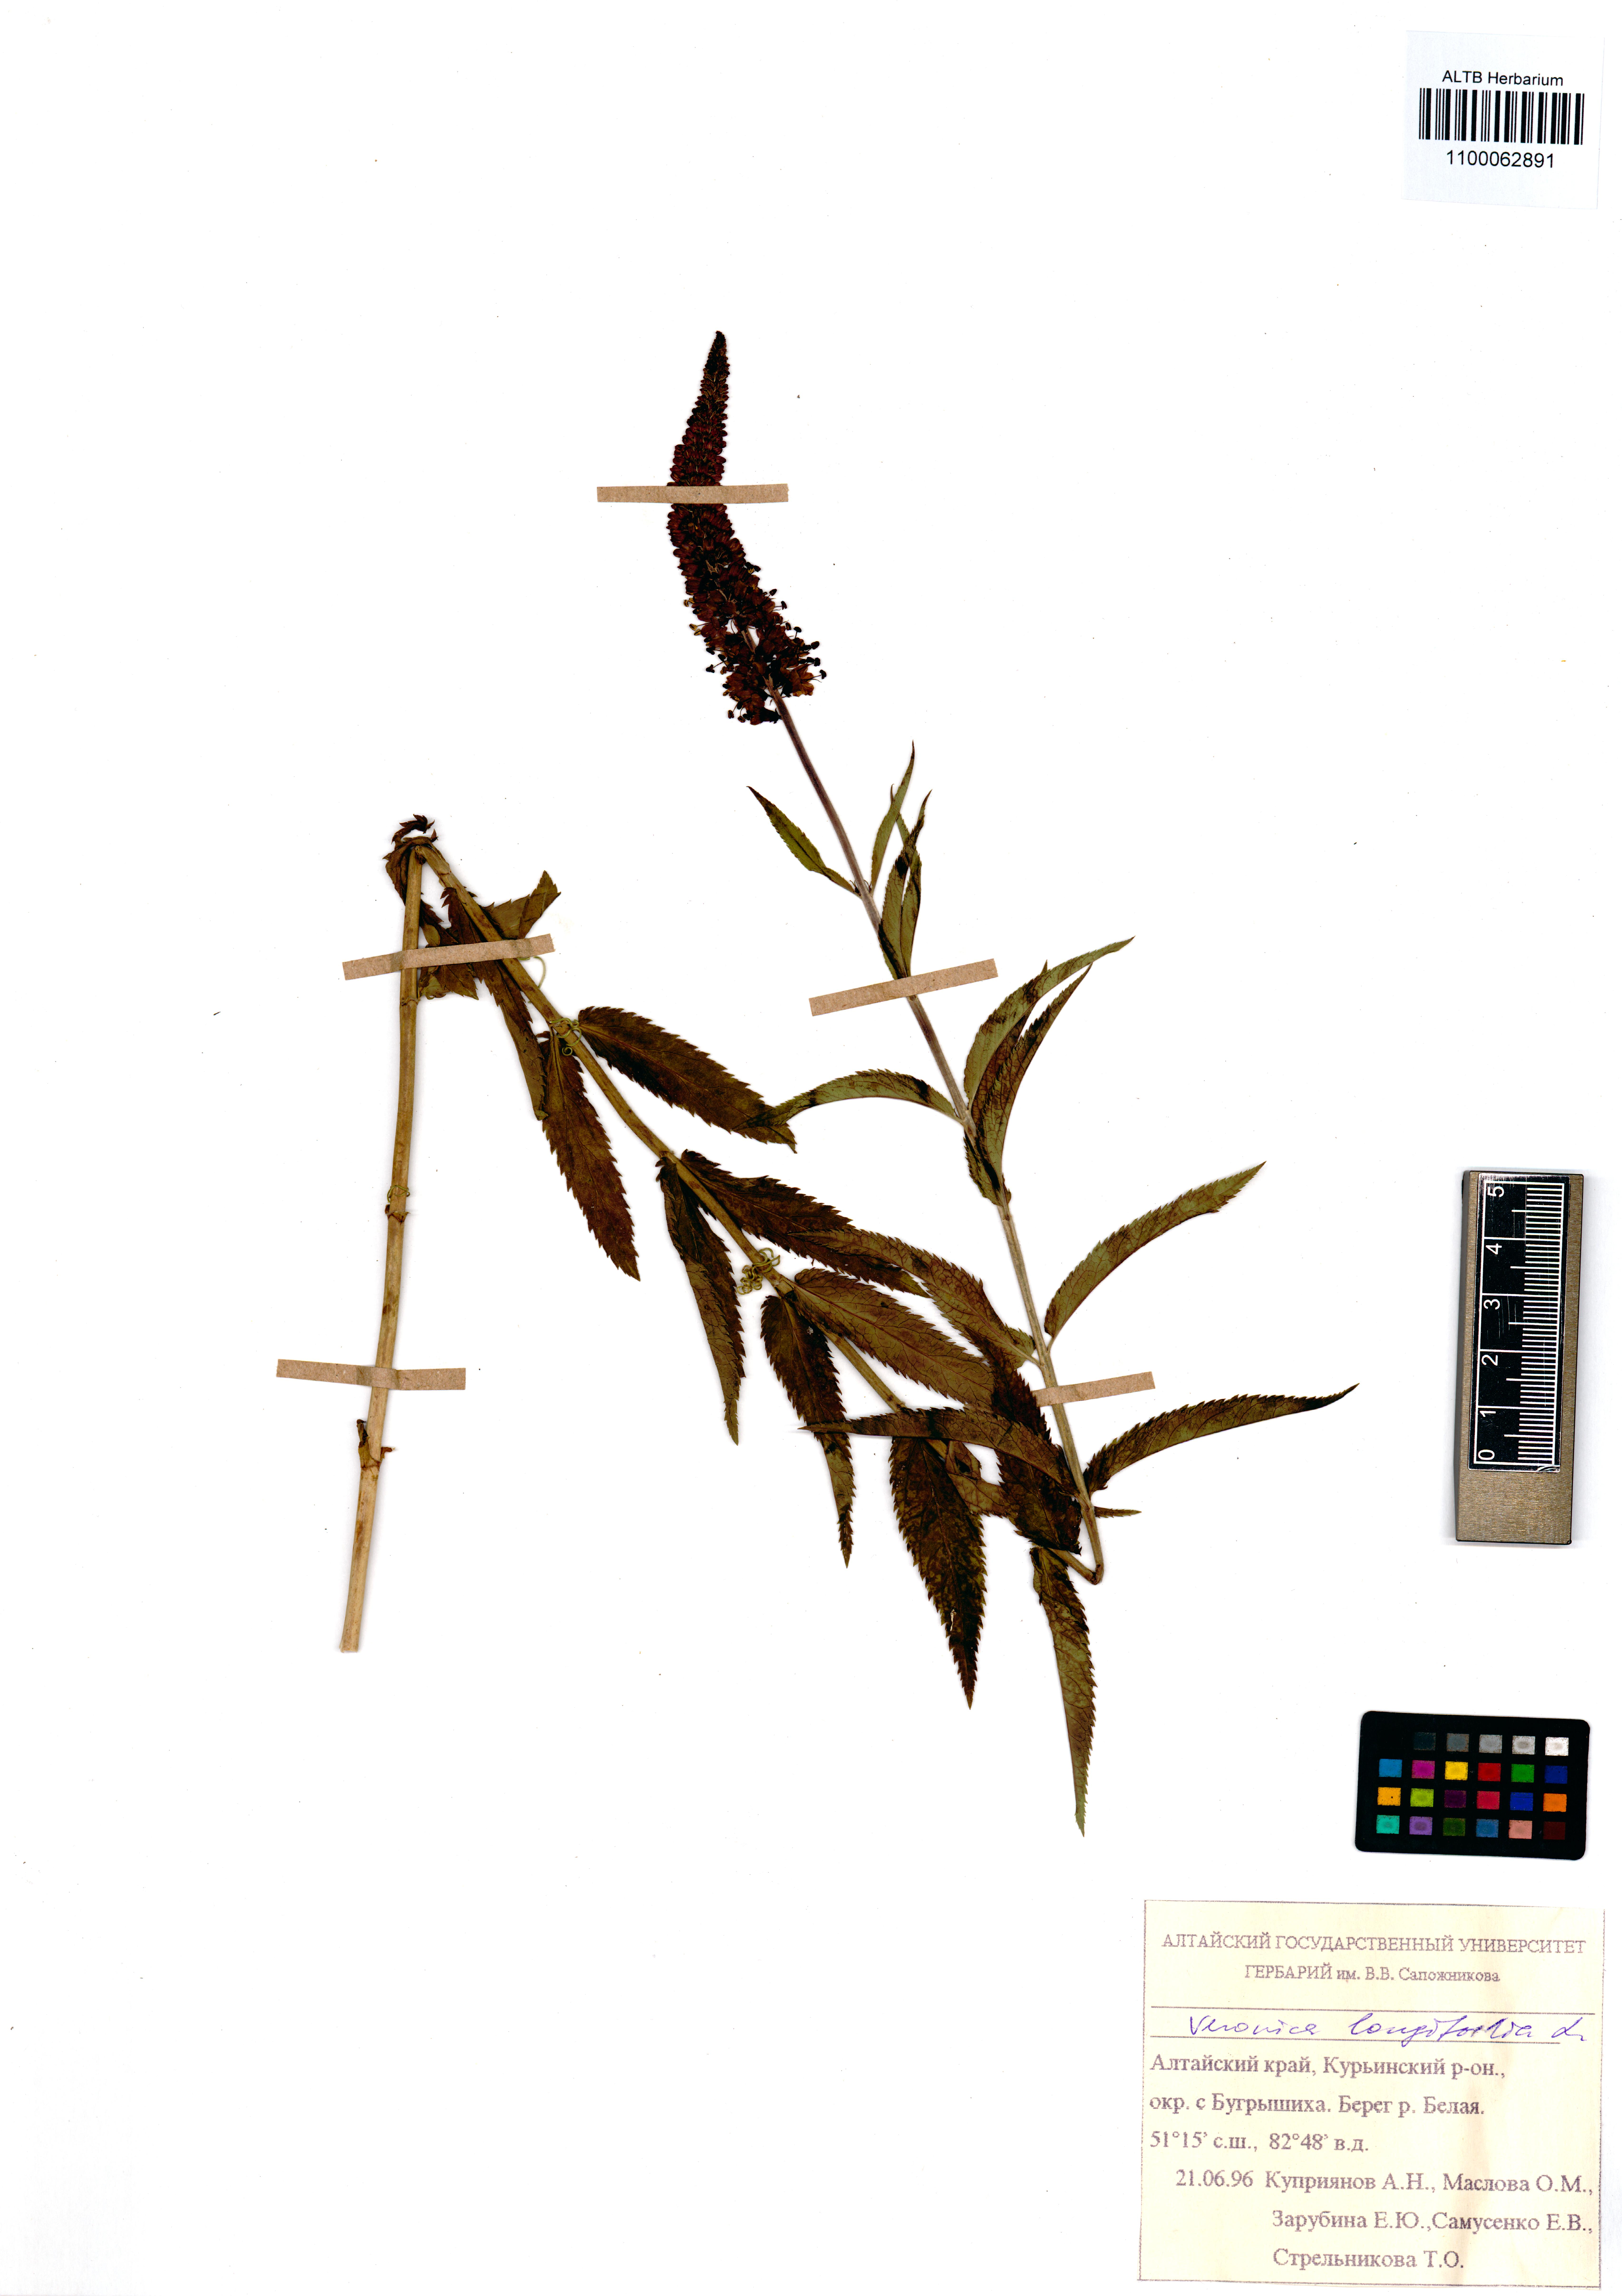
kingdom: Plantae
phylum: Tracheophyta
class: Magnoliopsida
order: Lamiales
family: Plantaginaceae
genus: Veronica
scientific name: Veronica longifolia
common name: Garden speedwell
